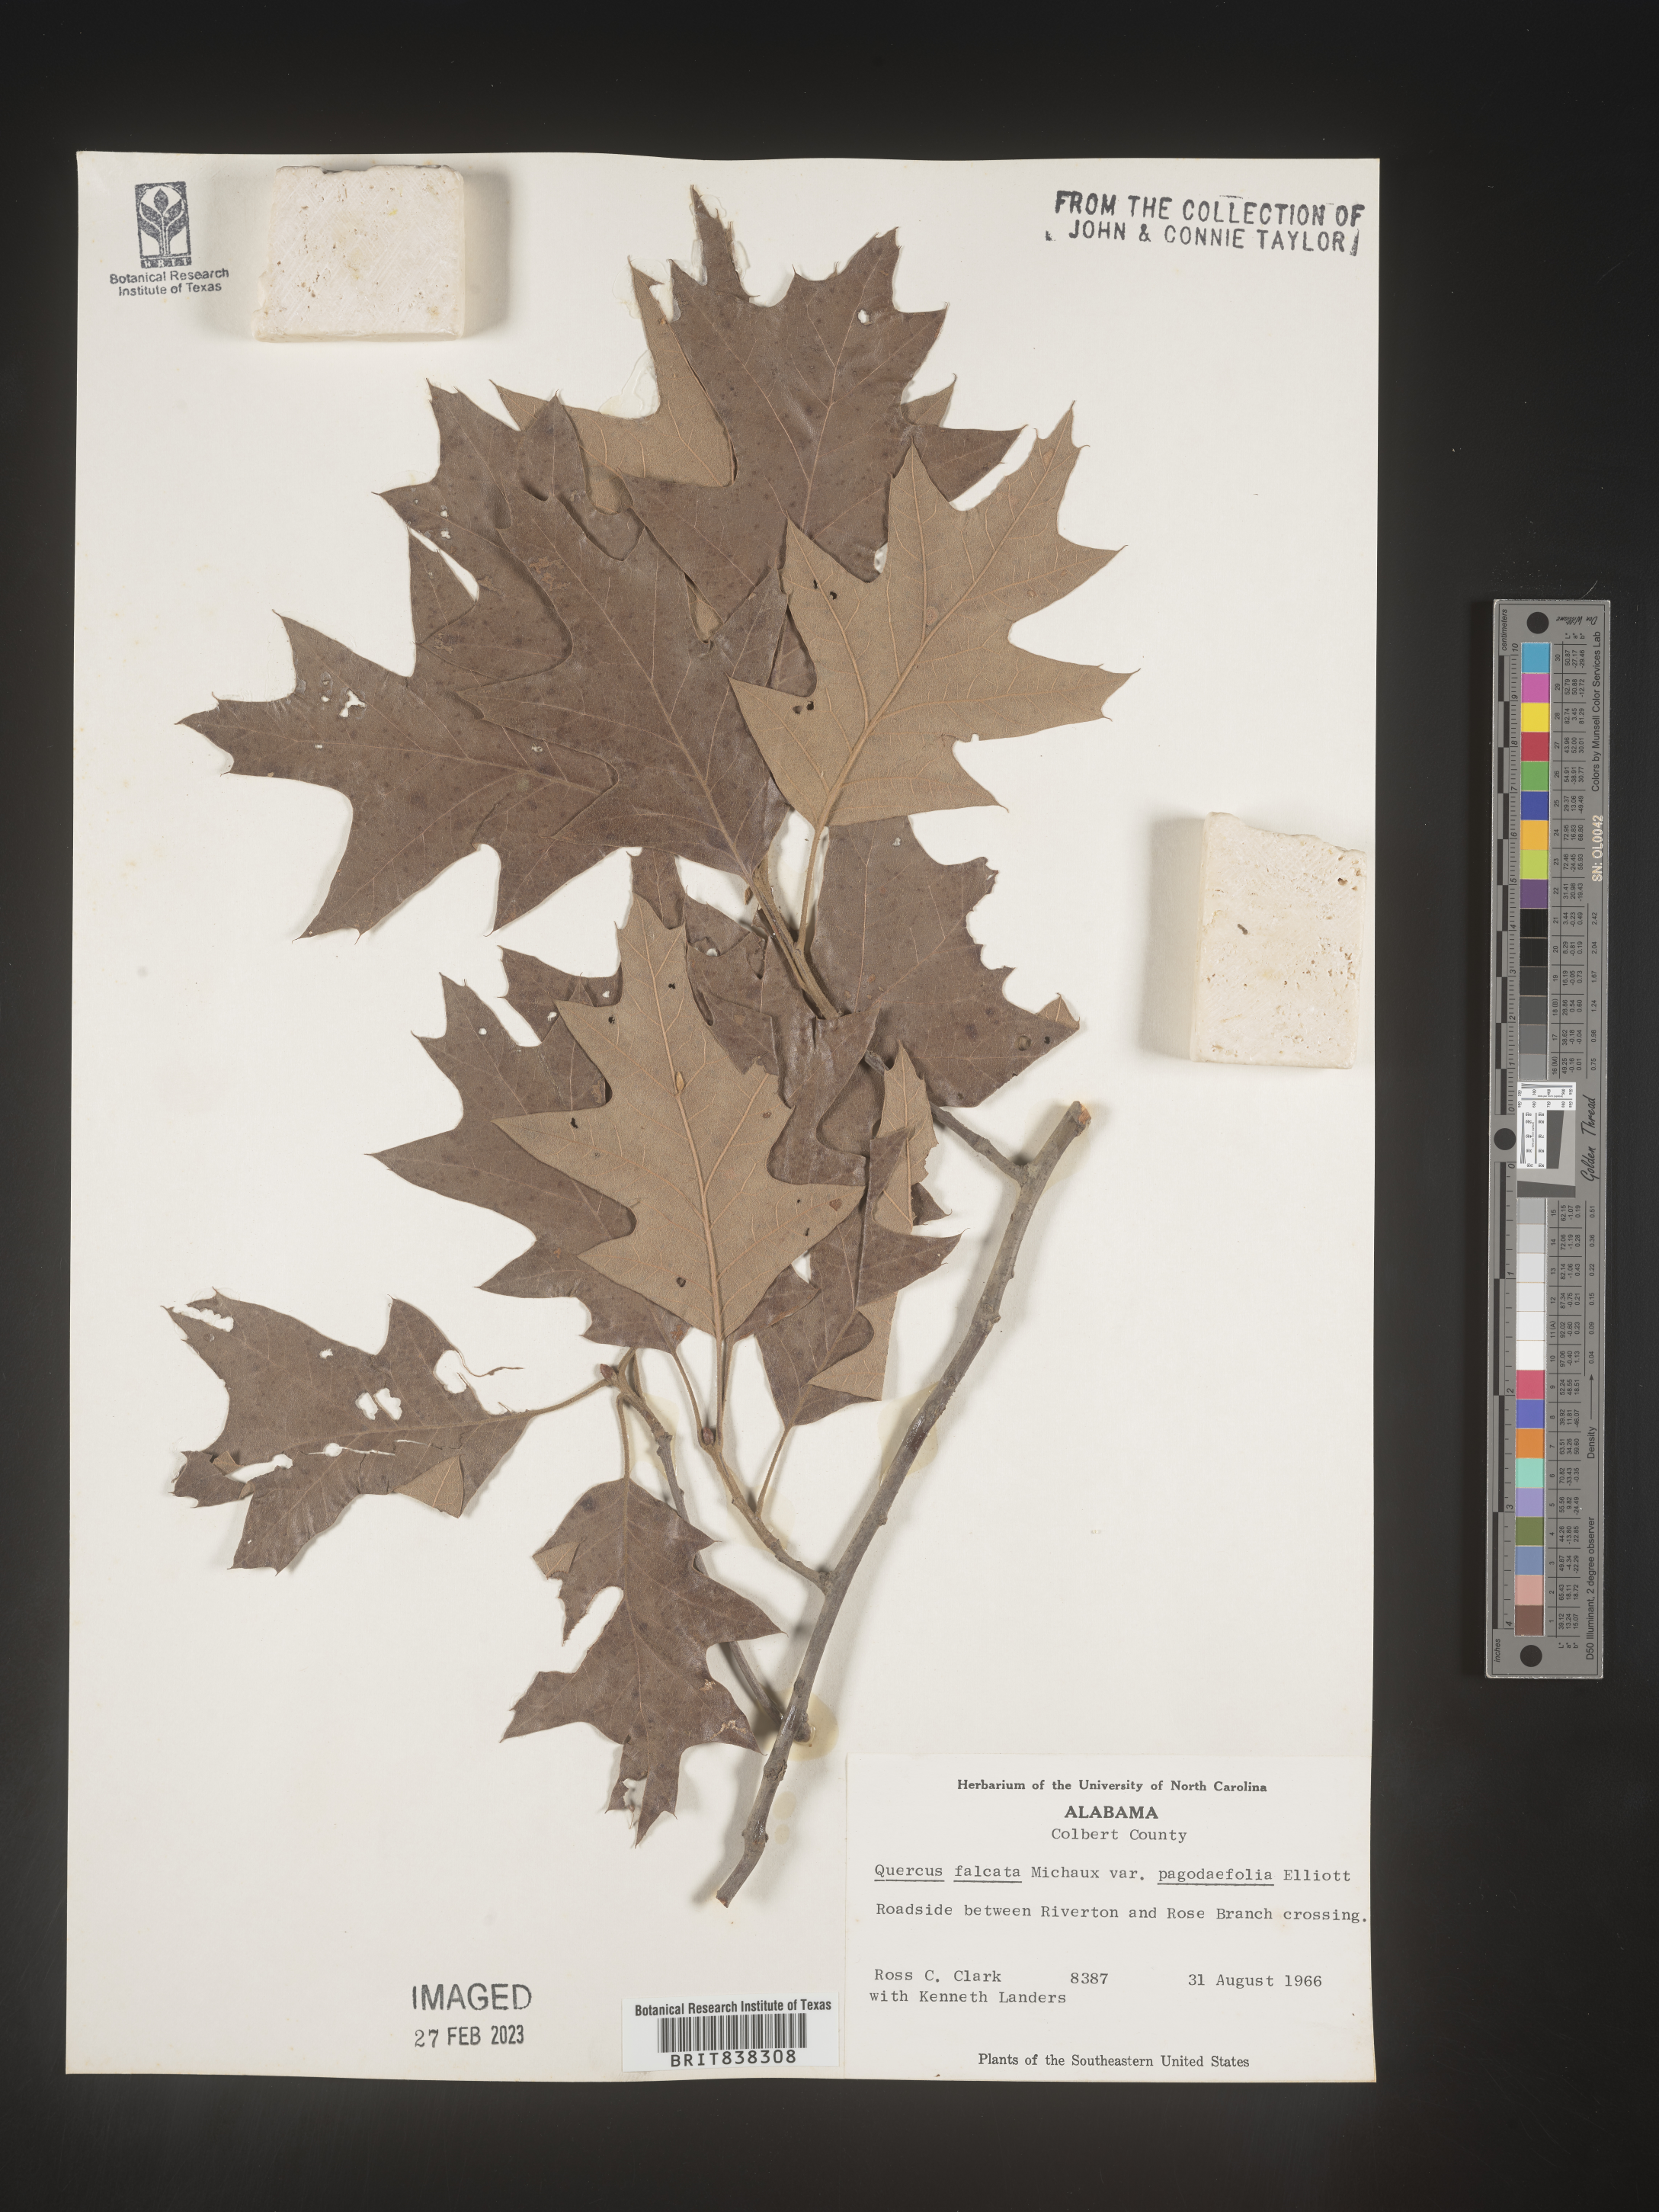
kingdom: Plantae
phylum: Tracheophyta
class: Magnoliopsida
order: Fagales
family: Fagaceae
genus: Quercus
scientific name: Quercus falcata
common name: Southern red oak
